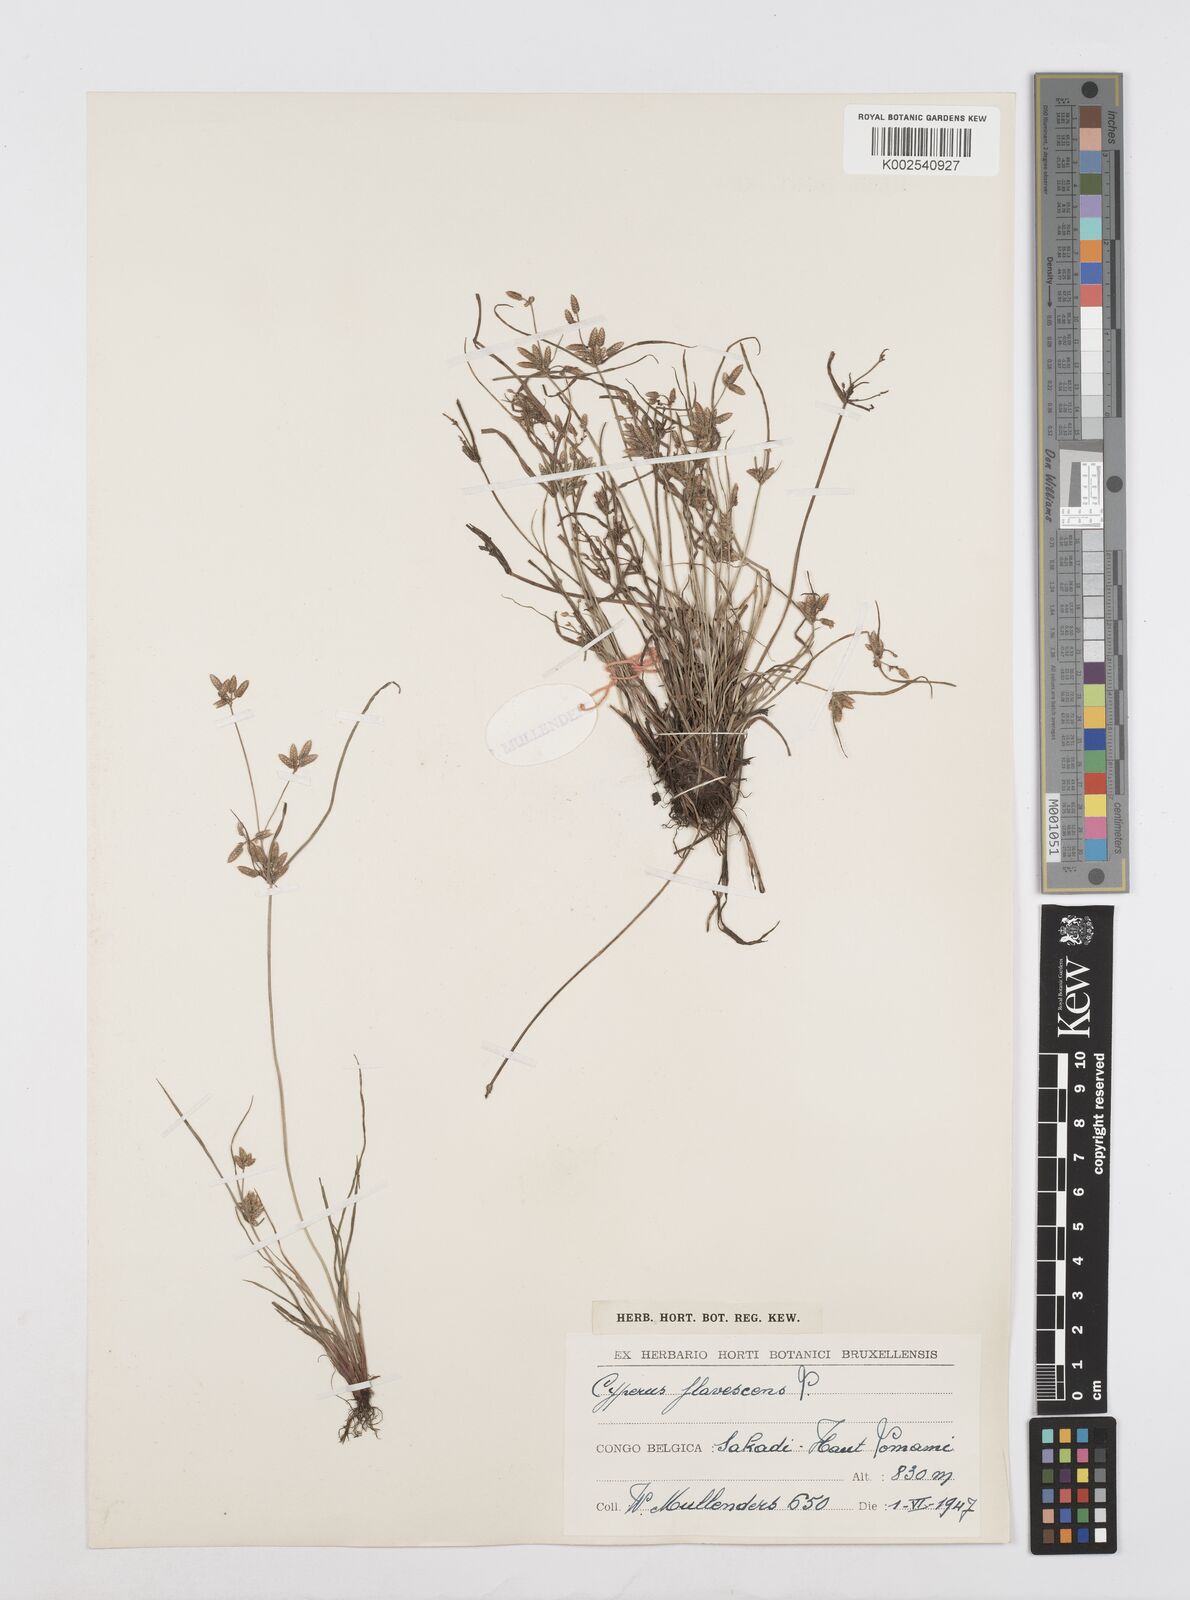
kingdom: Plantae
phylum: Tracheophyta
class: Liliopsida
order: Poales
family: Cyperaceae
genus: Cyperus
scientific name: Cyperus flavescens
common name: Yellow galingale
